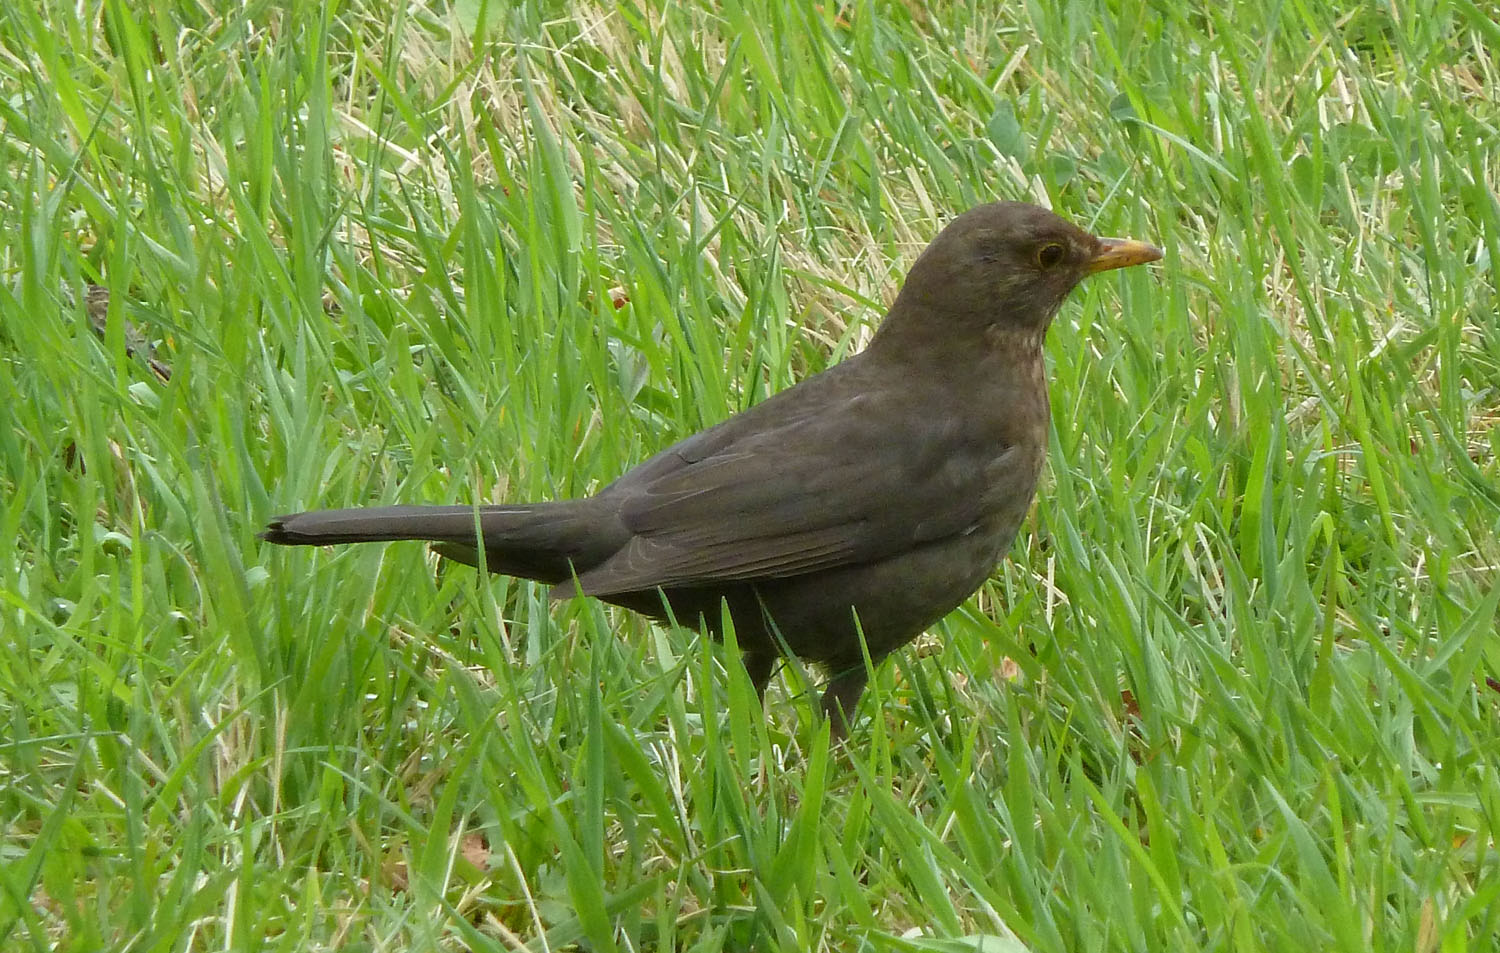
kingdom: Animalia
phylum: Chordata
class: Aves
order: Passeriformes
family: Turdidae
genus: Turdus
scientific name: Turdus merula
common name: Common blackbird
